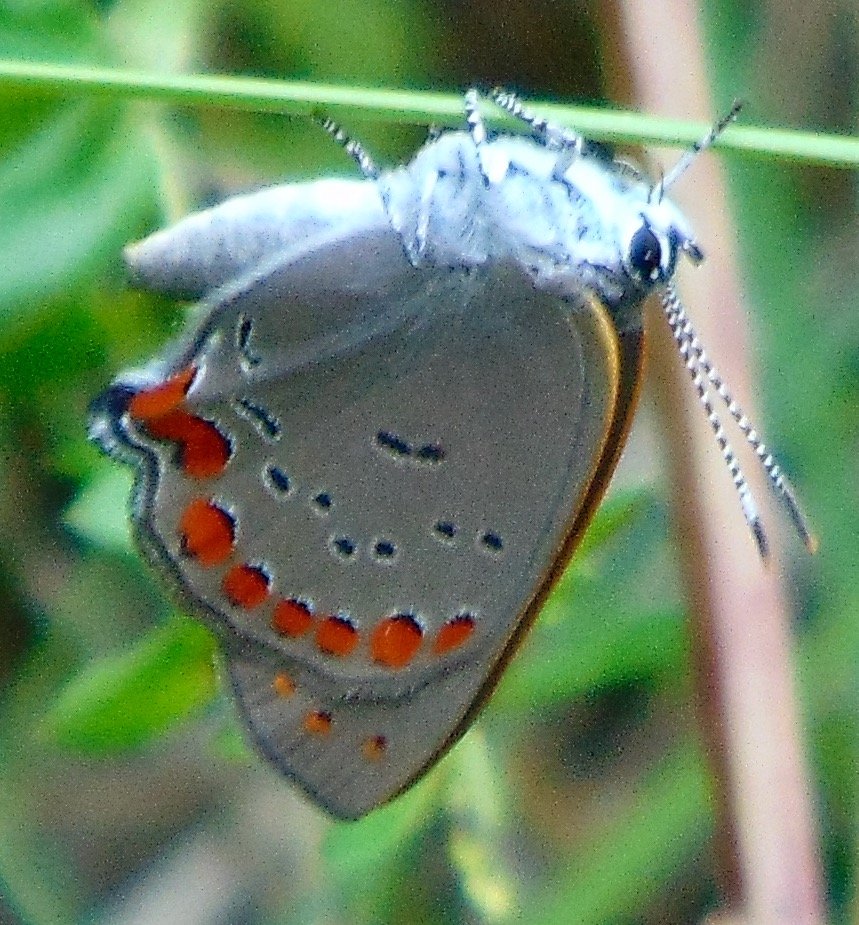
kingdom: Animalia
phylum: Arthropoda
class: Insecta
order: Lepidoptera
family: Lycaenidae
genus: Harkenclenus
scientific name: Harkenclenus titus
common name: Coral Hairstreak
